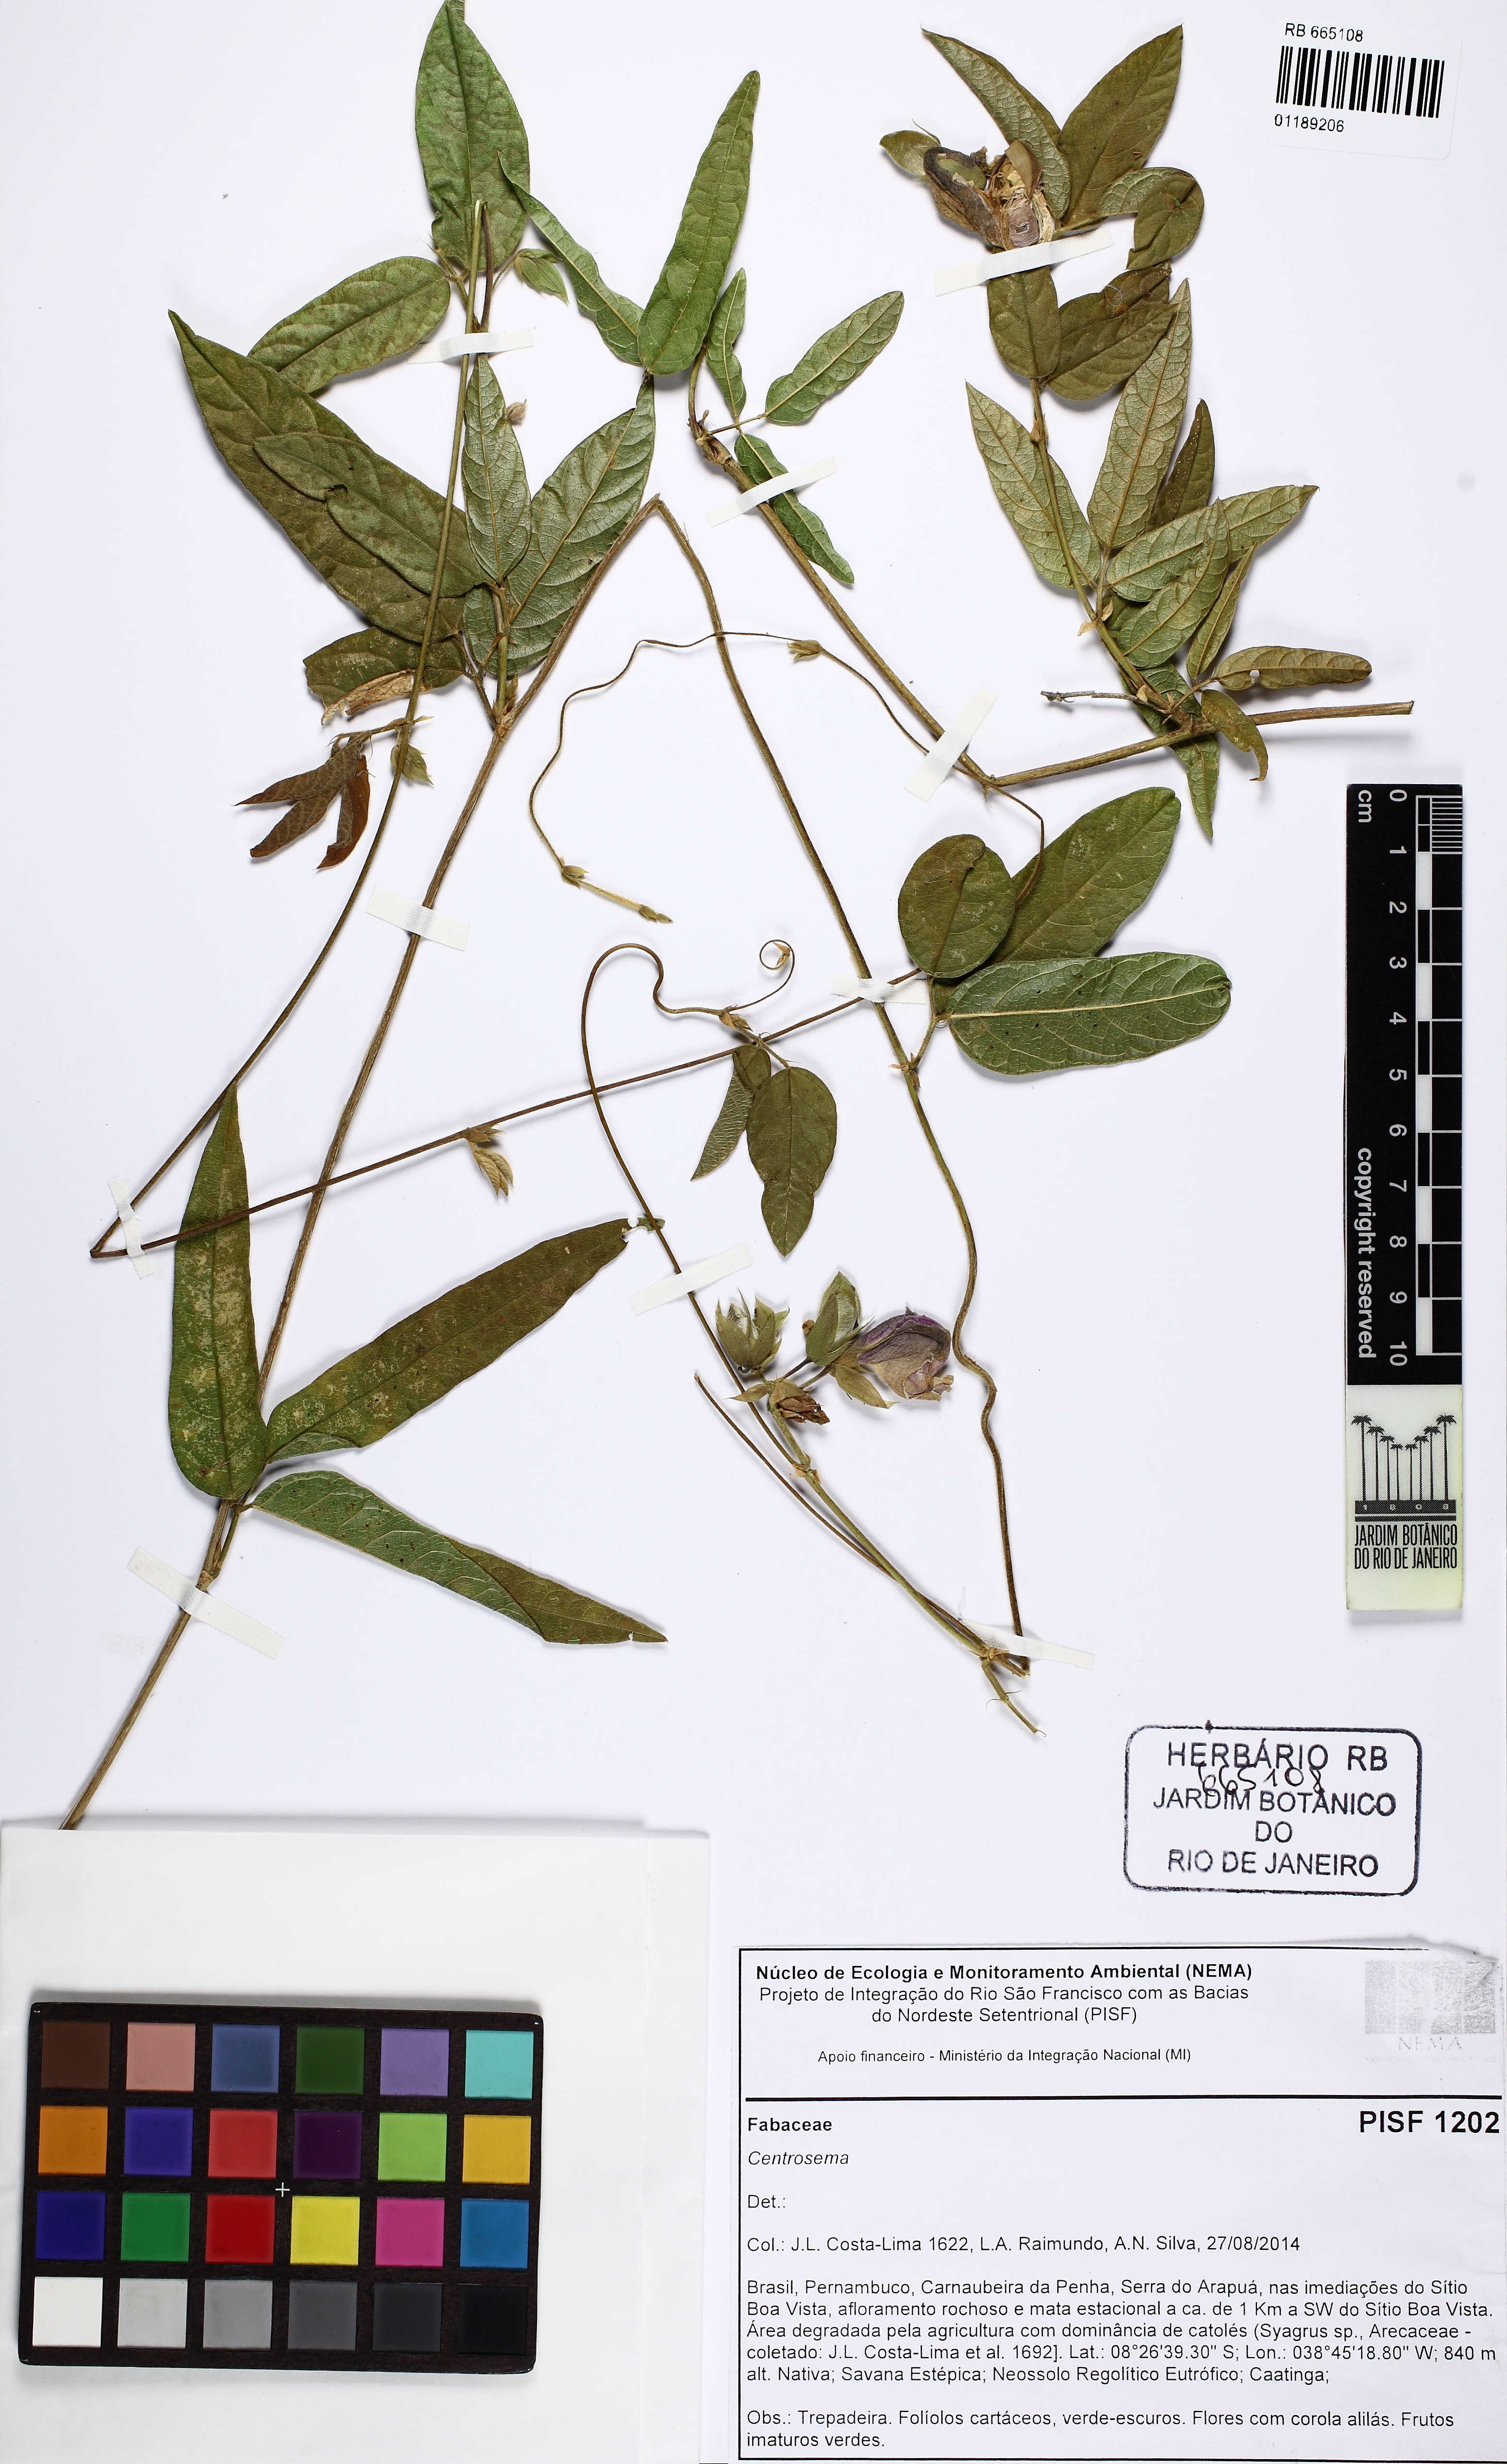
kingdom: Plantae
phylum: Tracheophyta
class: Magnoliopsida
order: Fabales
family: Fabaceae
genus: Centrosema
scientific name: Centrosema
